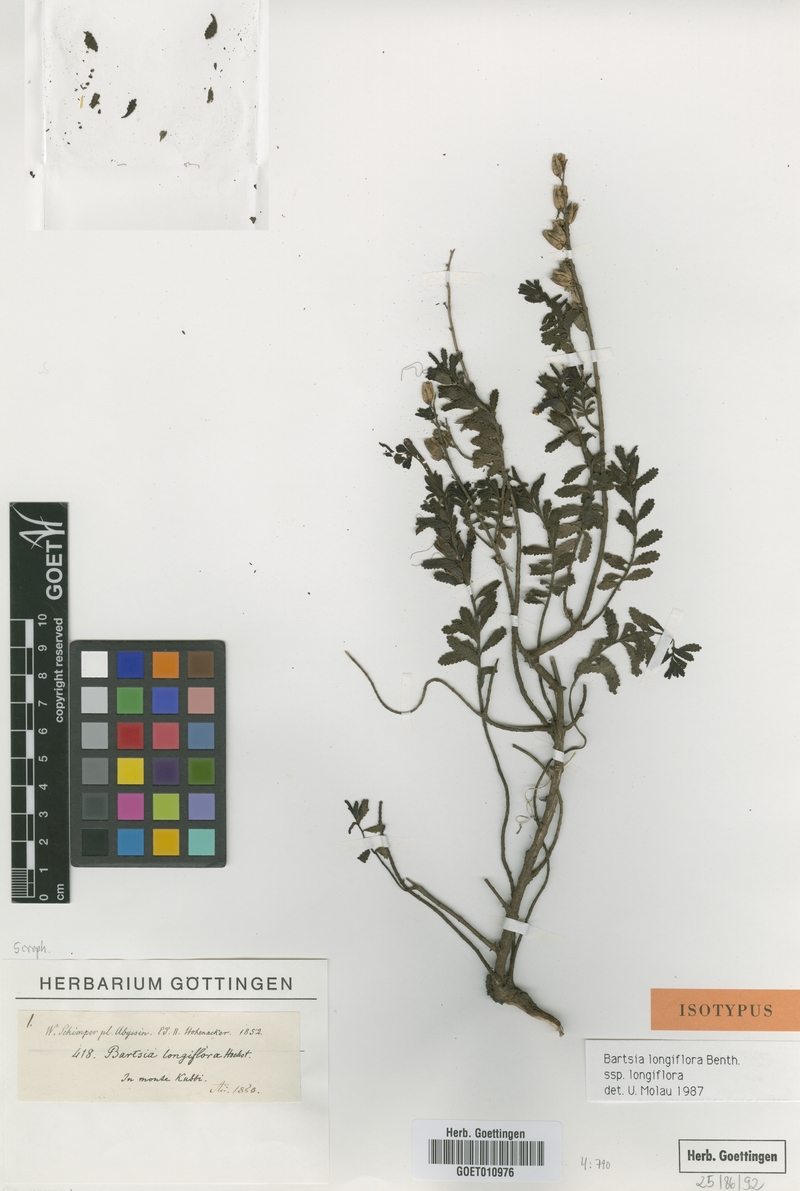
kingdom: Plantae
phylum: Tracheophyta
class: Magnoliopsida
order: Lamiales
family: Orobanchaceae
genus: Hedbergia
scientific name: Hedbergia longiflora
